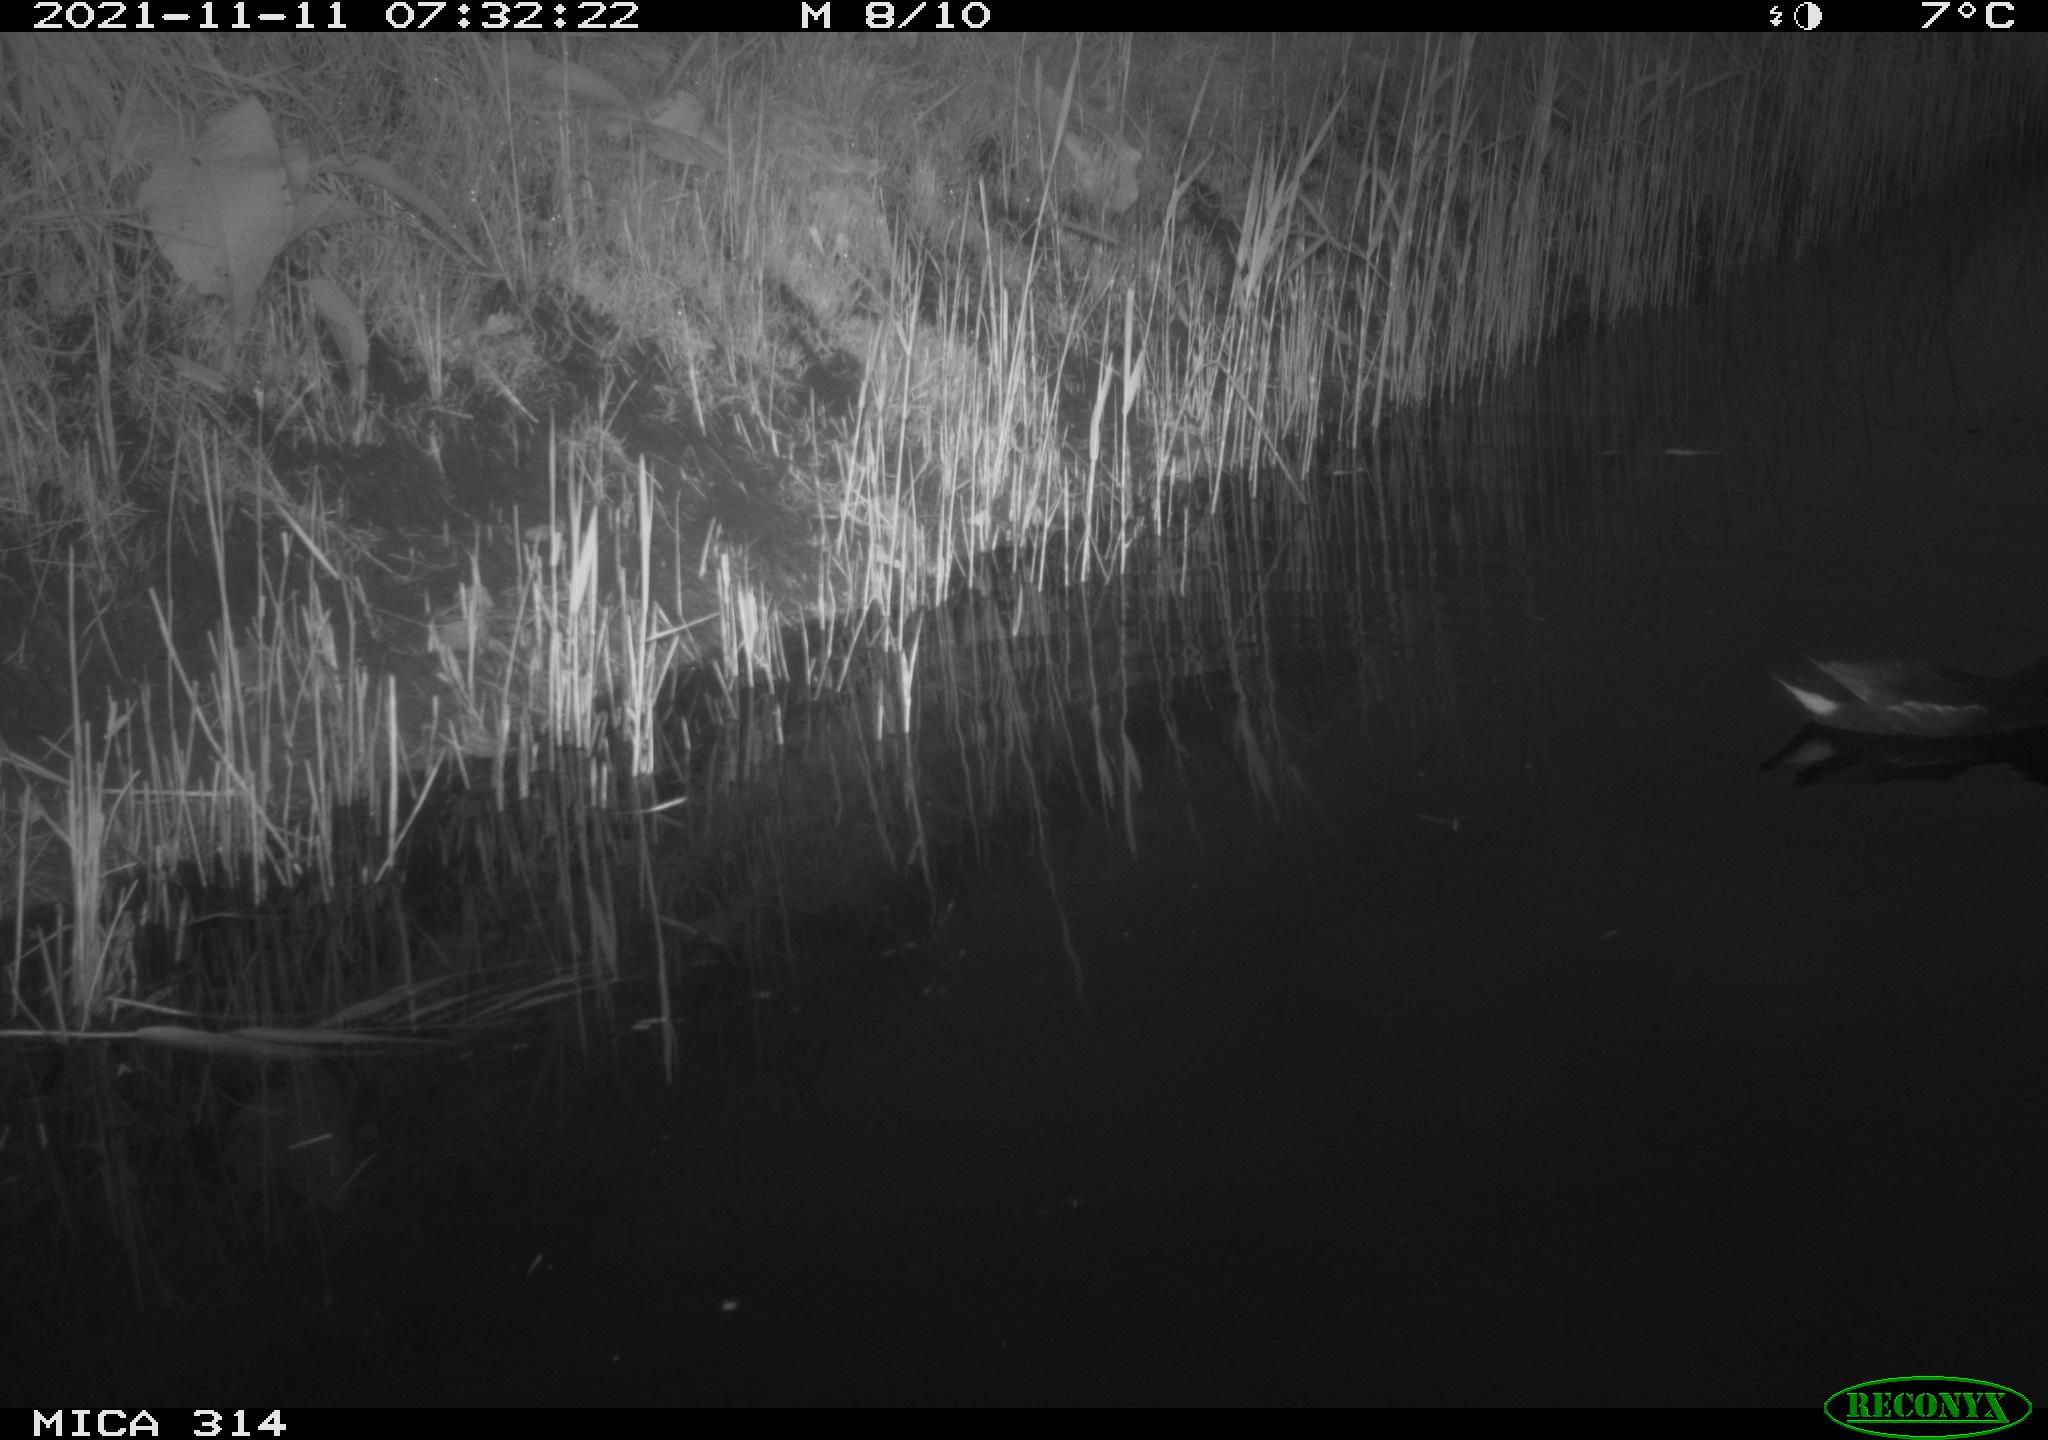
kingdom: Animalia
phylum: Chordata
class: Aves
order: Gruiformes
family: Rallidae
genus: Gallinula
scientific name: Gallinula chloropus
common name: Common moorhen
